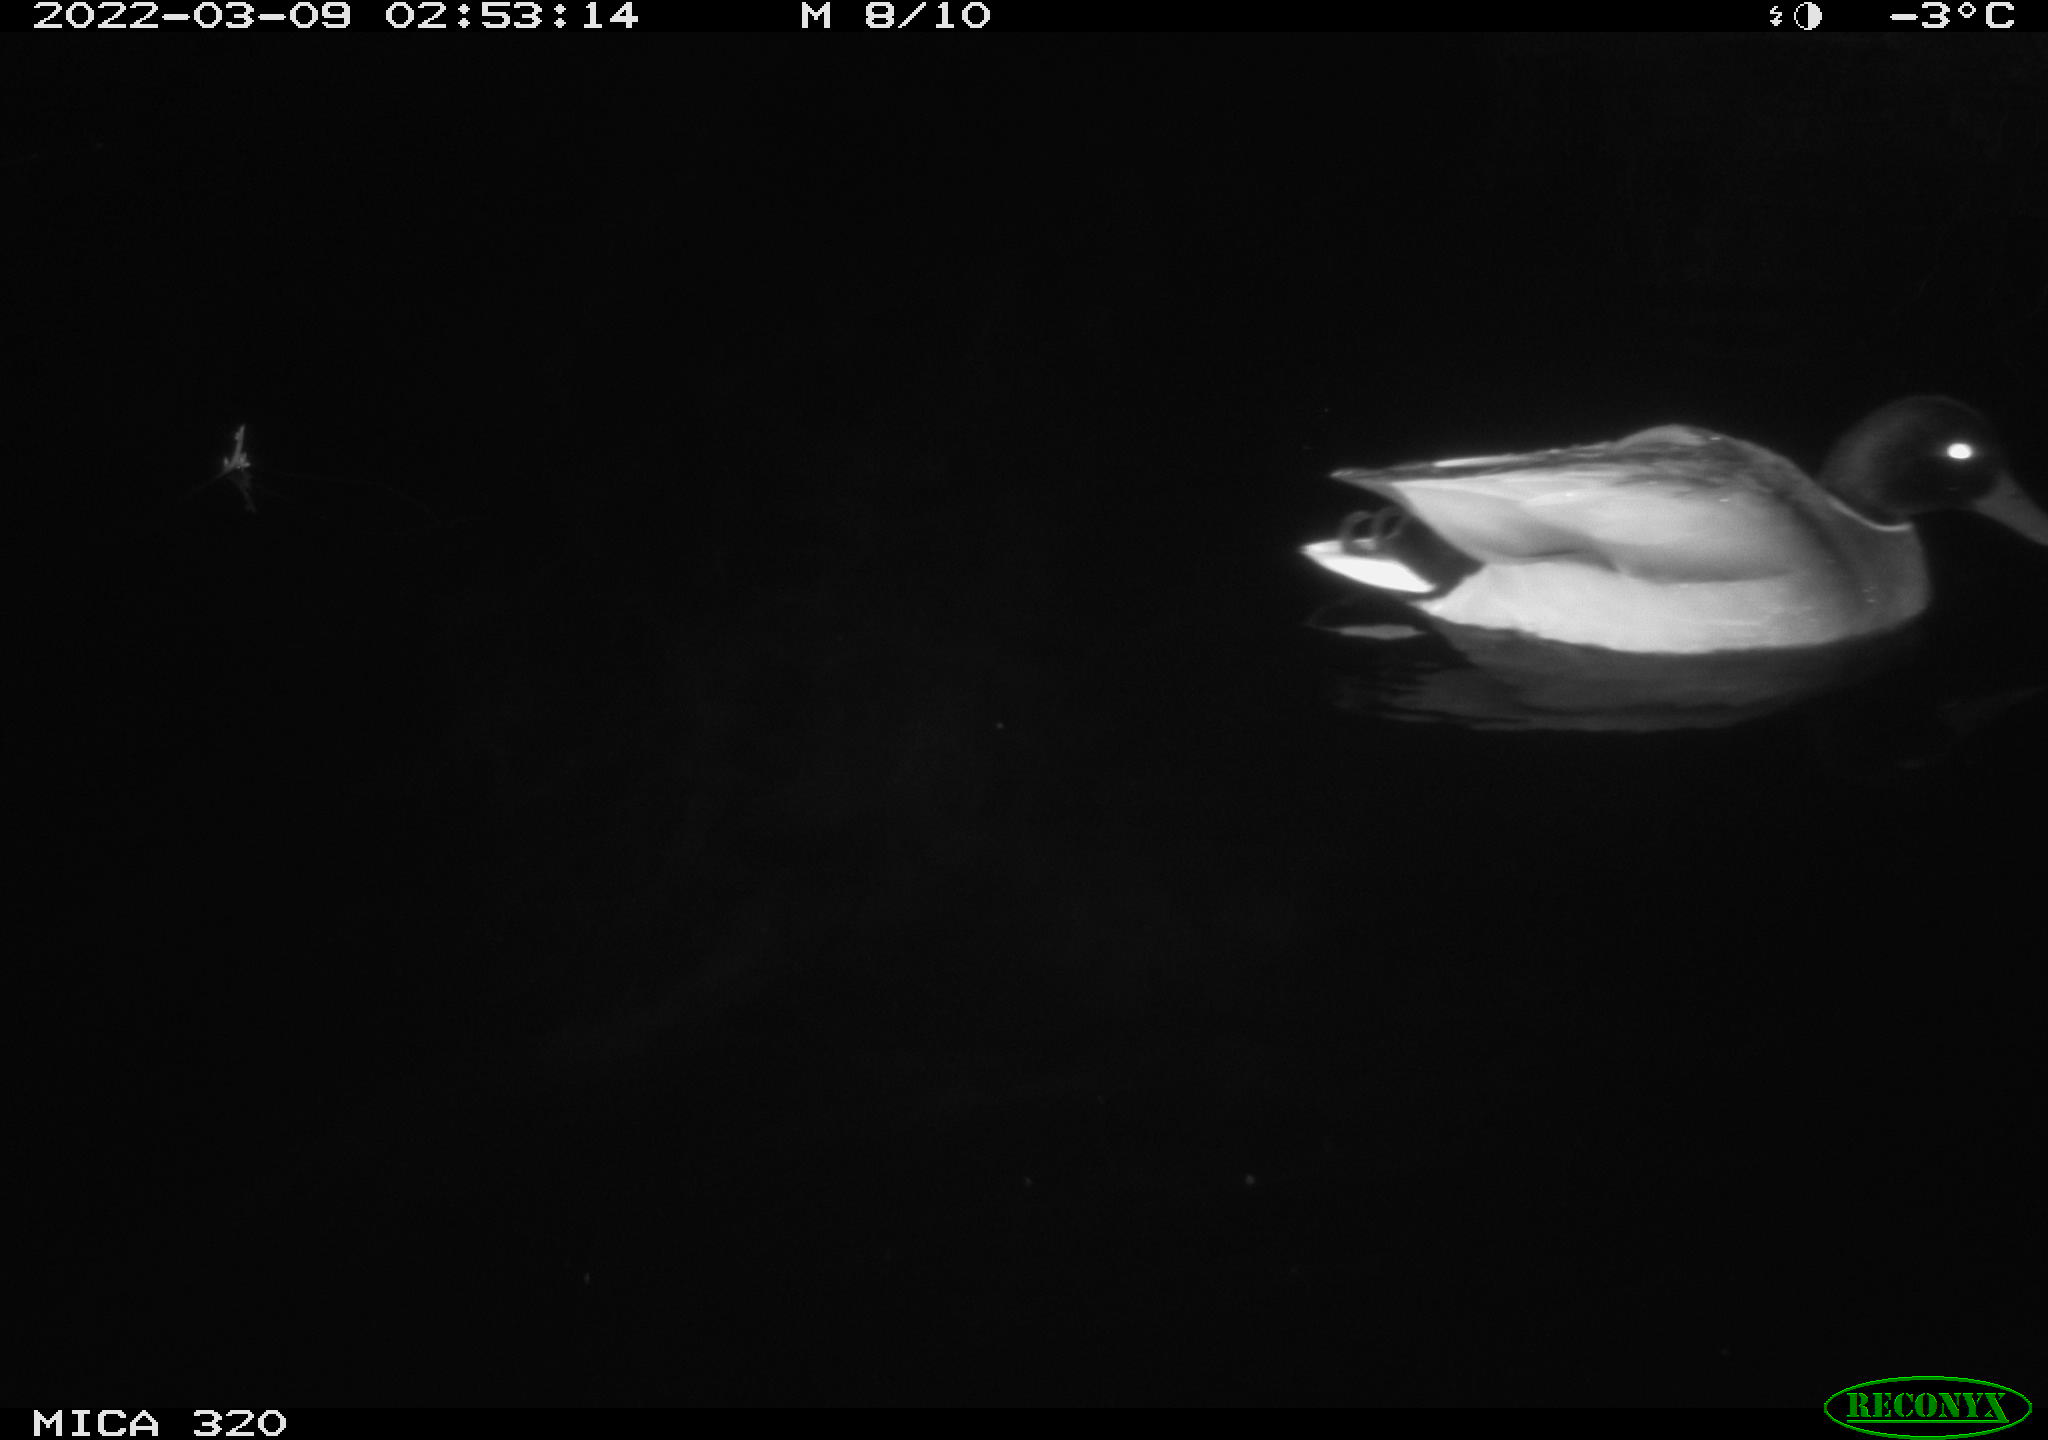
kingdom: Animalia
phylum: Chordata
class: Aves
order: Anseriformes
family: Anatidae
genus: Anas
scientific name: Anas platyrhynchos
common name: Mallard
